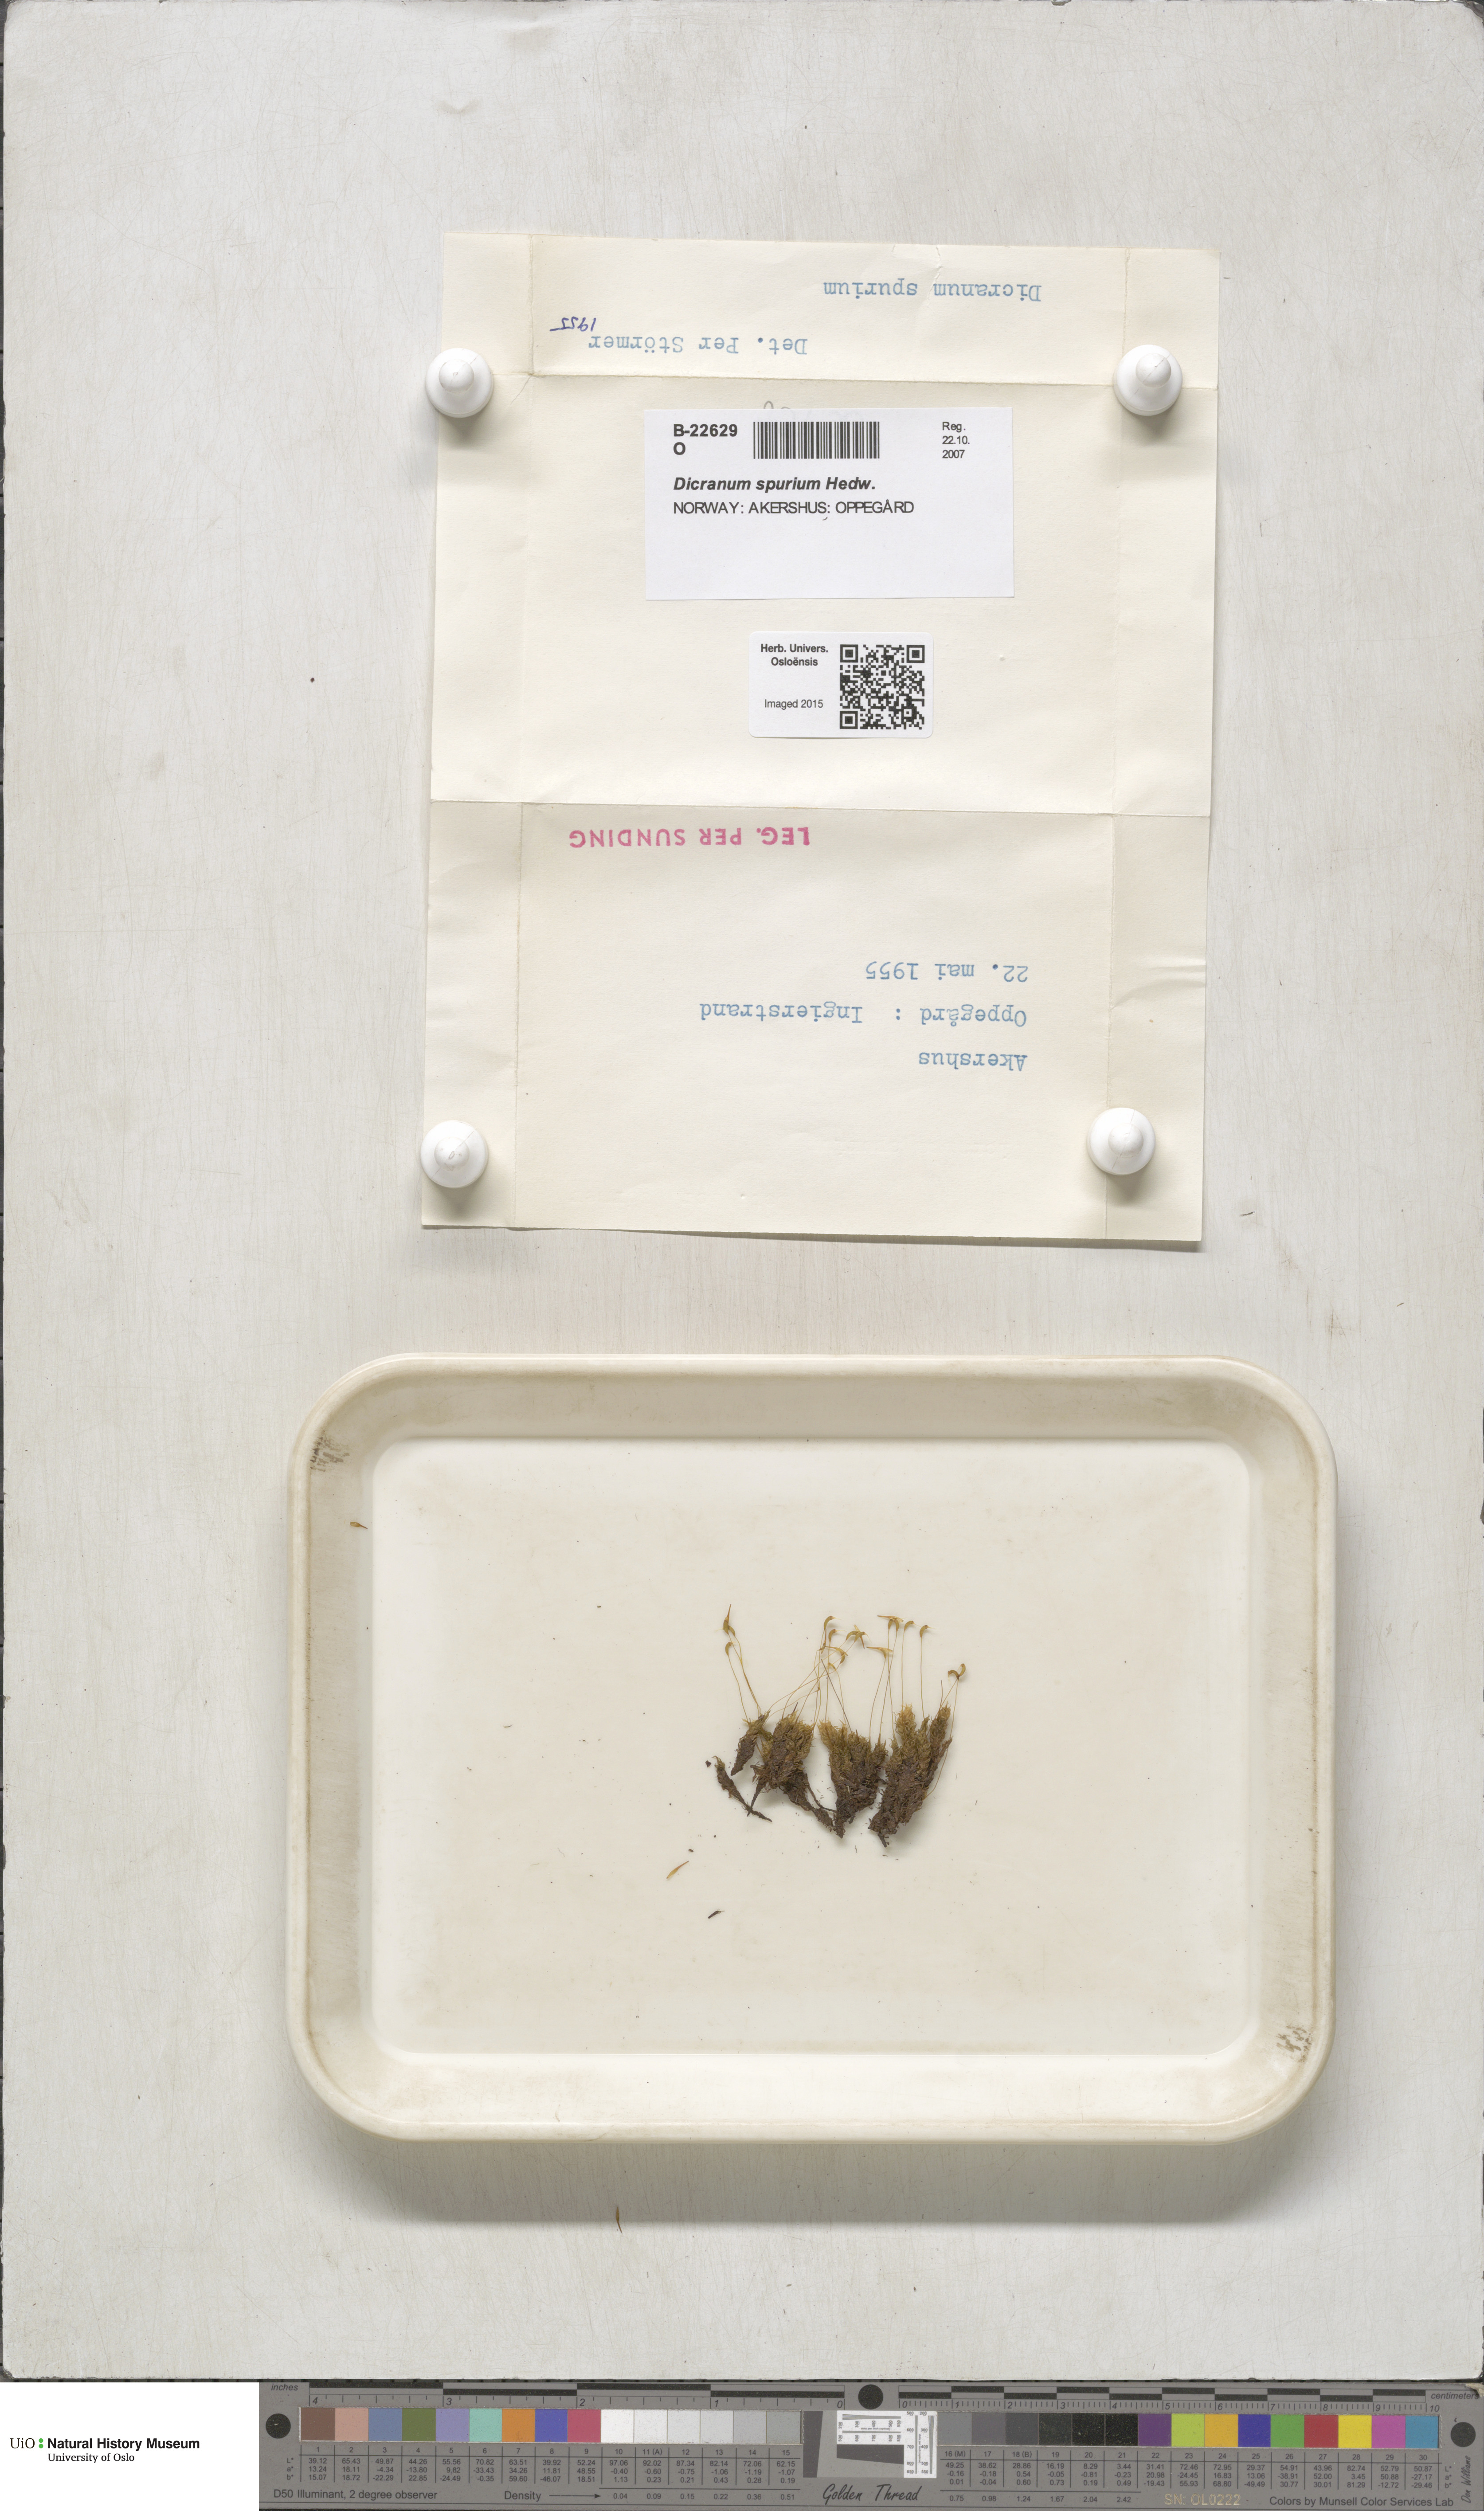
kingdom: Plantae
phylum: Bryophyta
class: Bryopsida
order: Dicranales
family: Dicranaceae
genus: Dicranum
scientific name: Dicranum spurium
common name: Spurred broom moss
